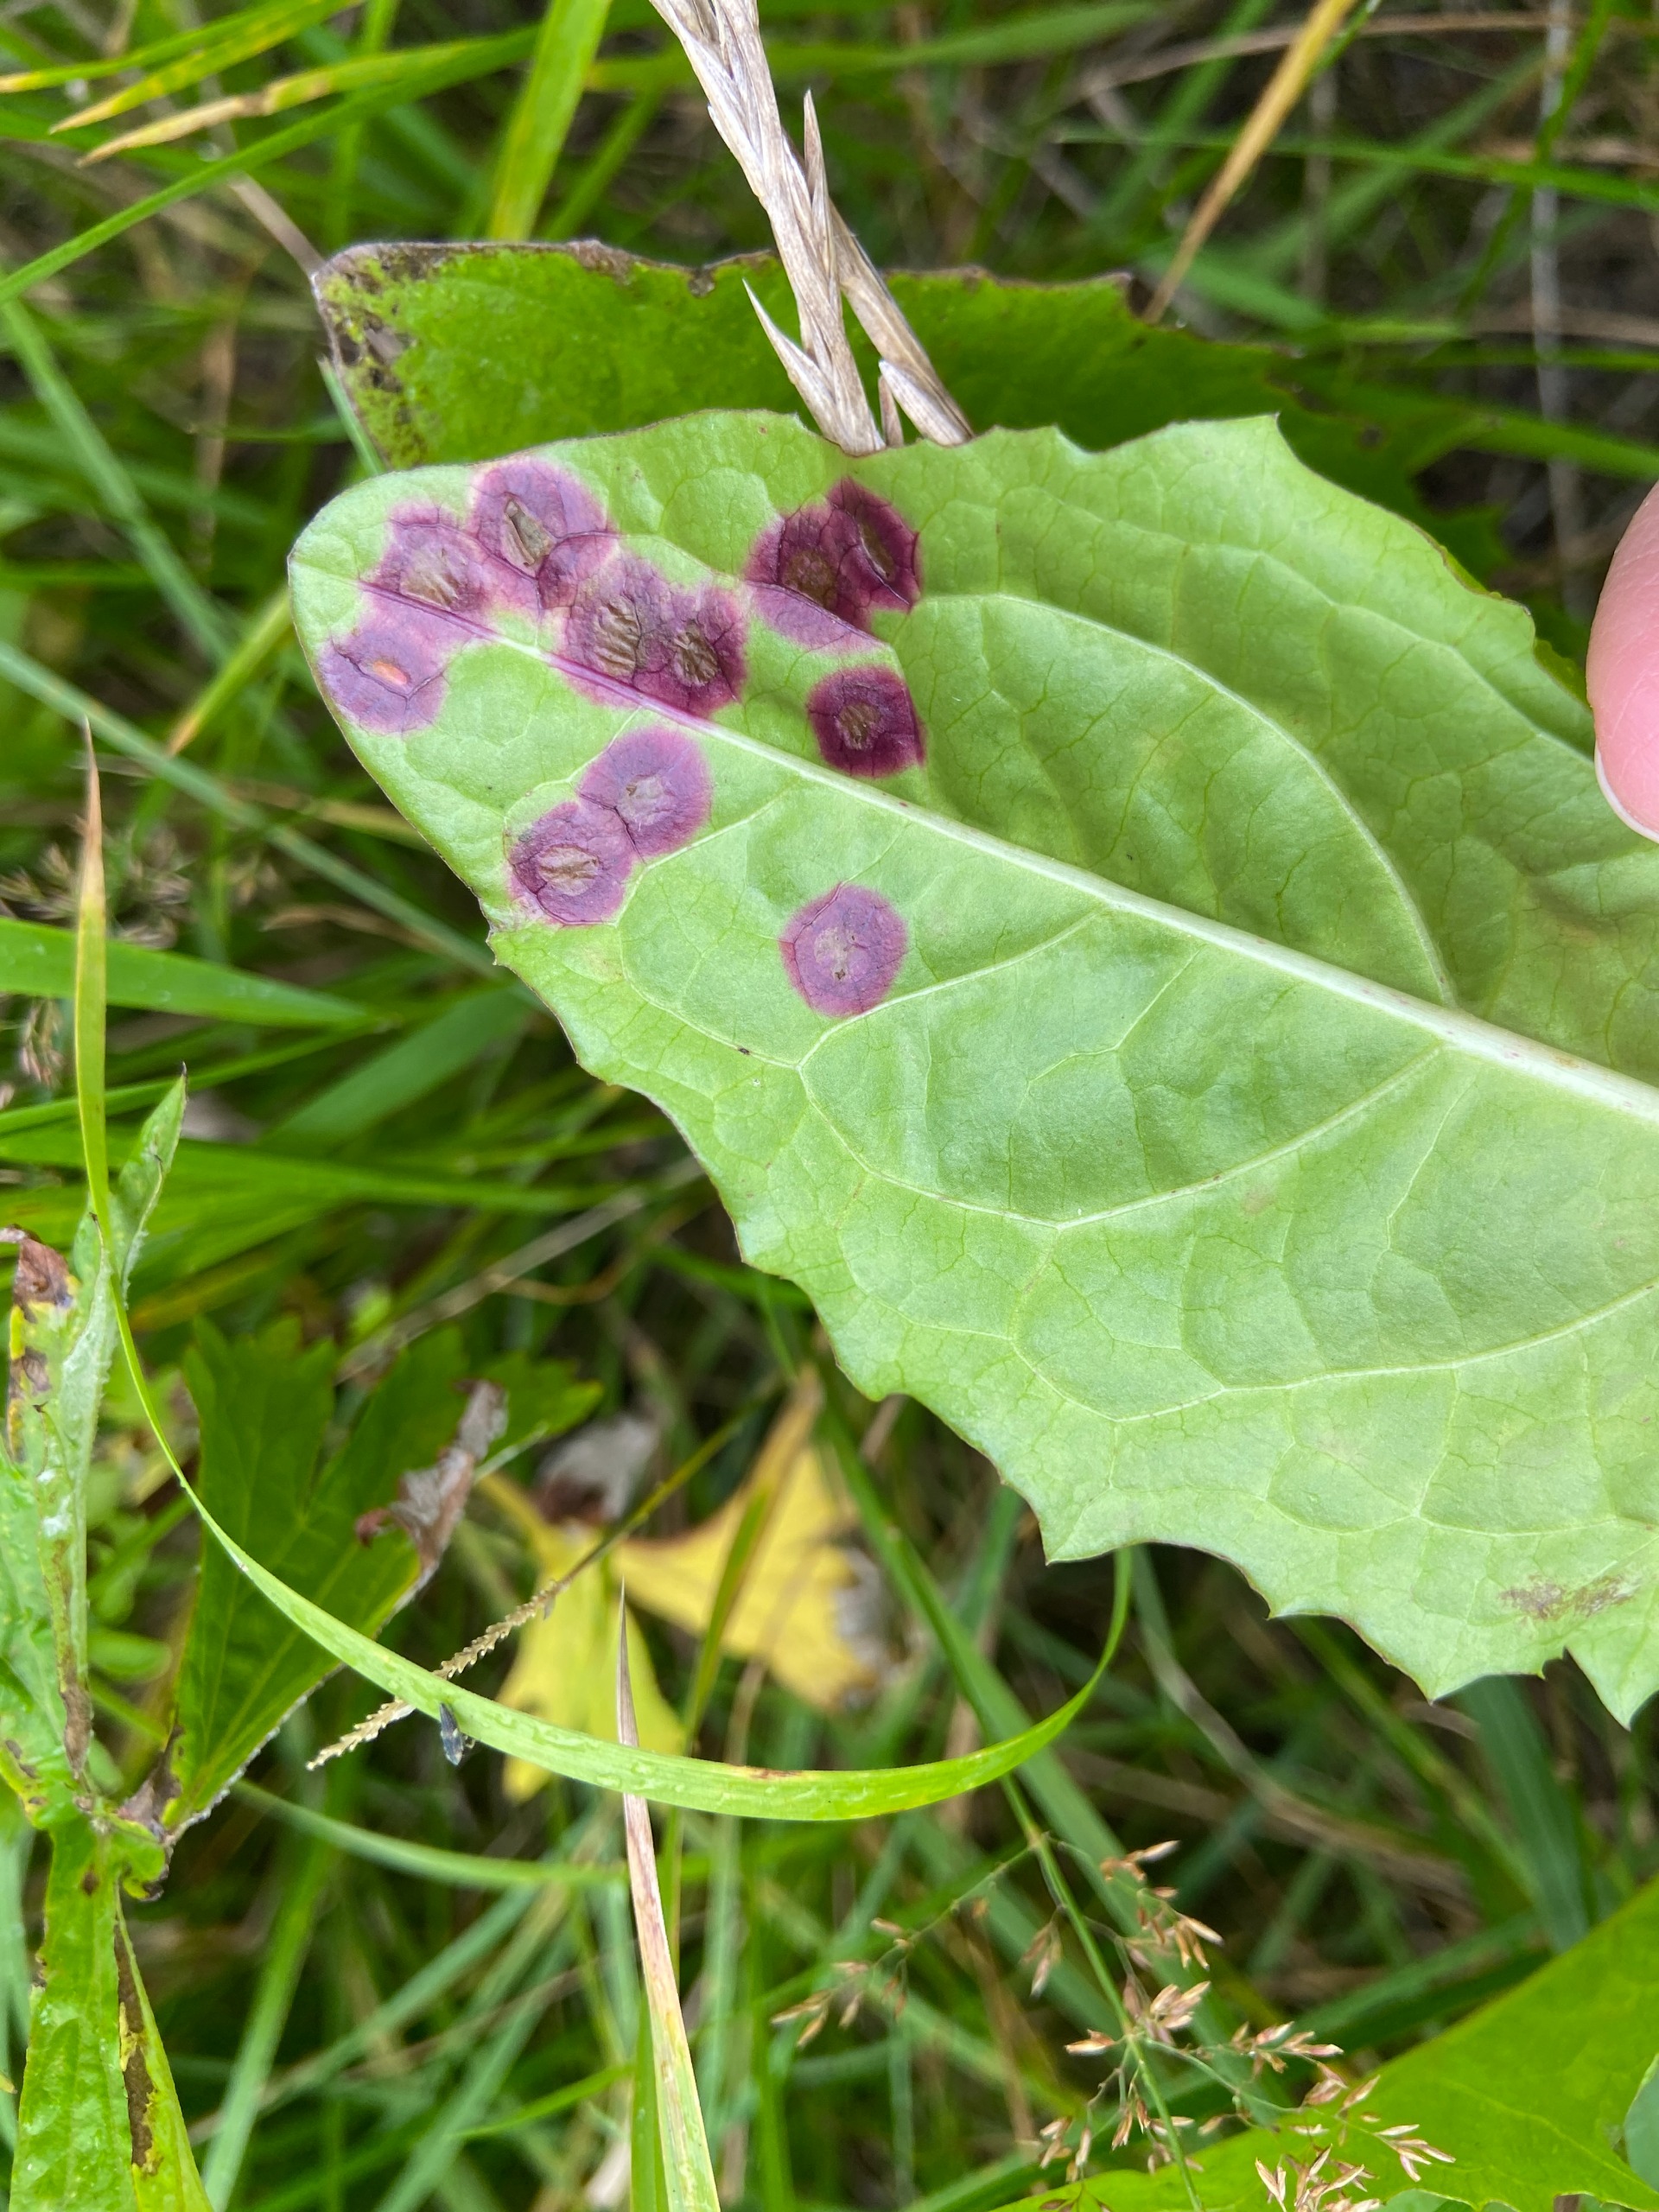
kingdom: Animalia
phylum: Arthropoda
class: Insecta
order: Diptera
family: Cecidomyiidae
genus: Cystiphora
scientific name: Cystiphora taraxaci
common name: Mælkebøttegalmyg
